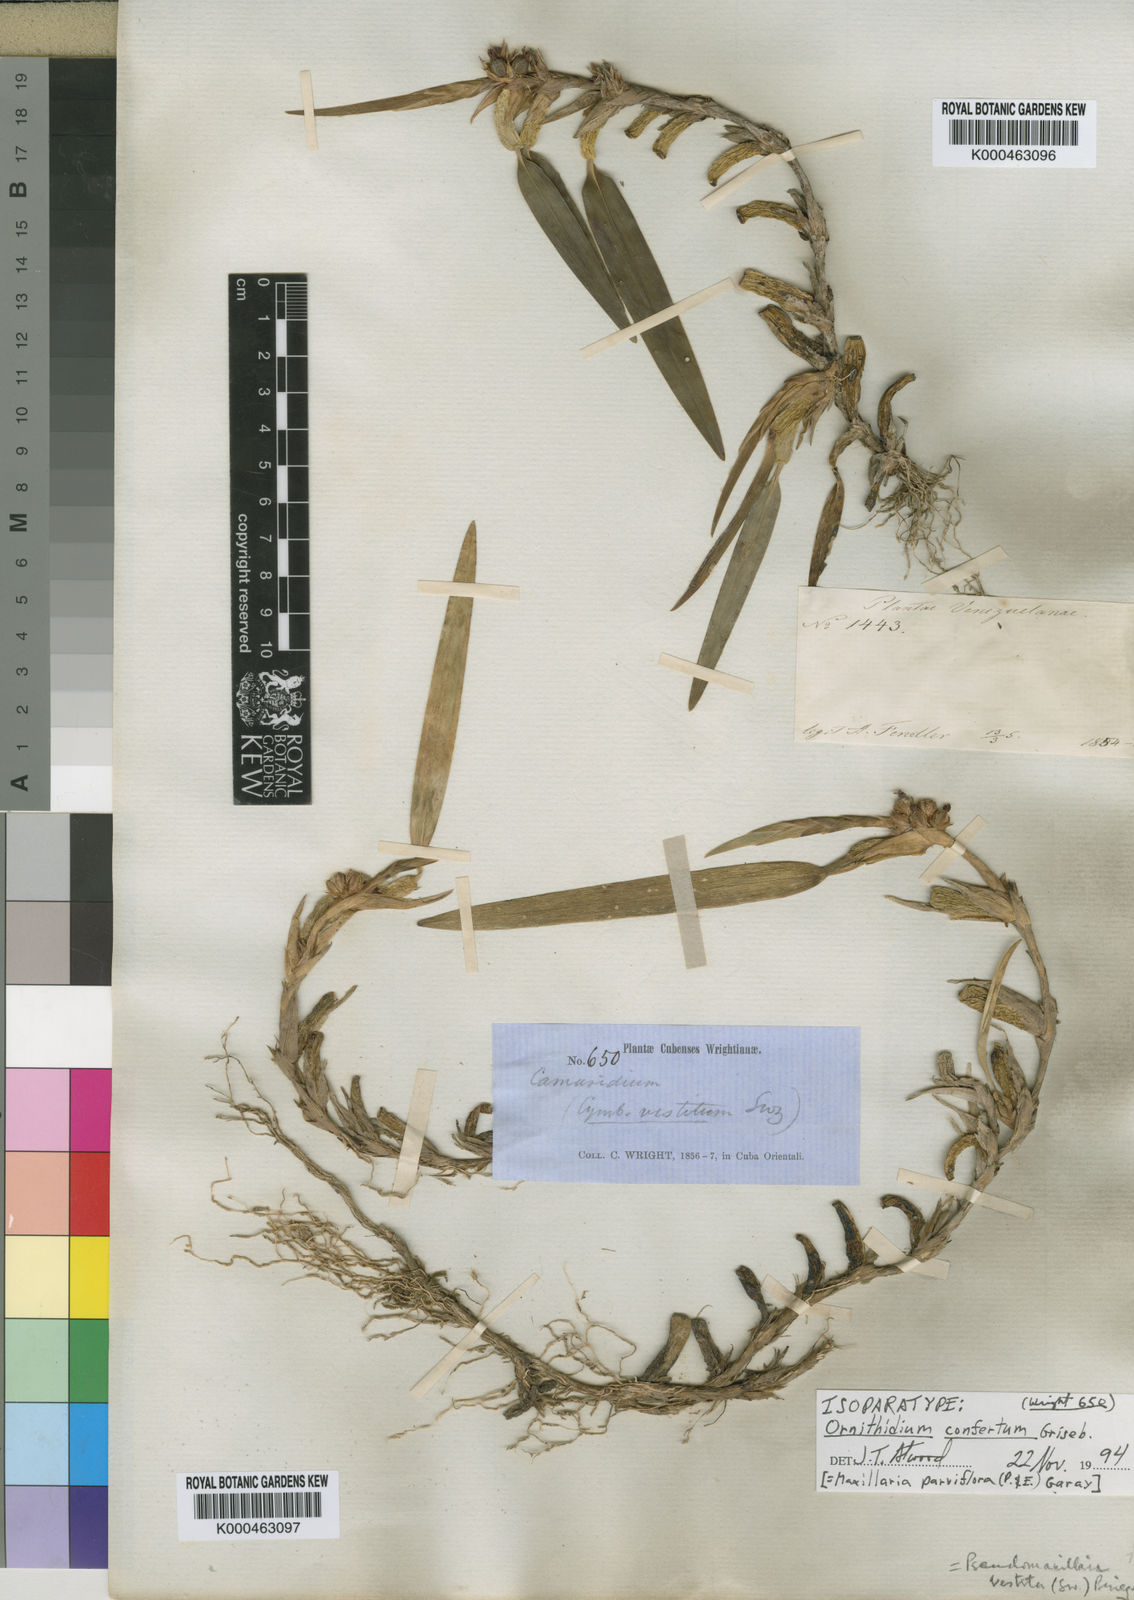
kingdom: Plantae
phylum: Tracheophyta
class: Liliopsida
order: Asparagales
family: Orchidaceae
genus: Maxillaria
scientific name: Maxillaria parviflora
